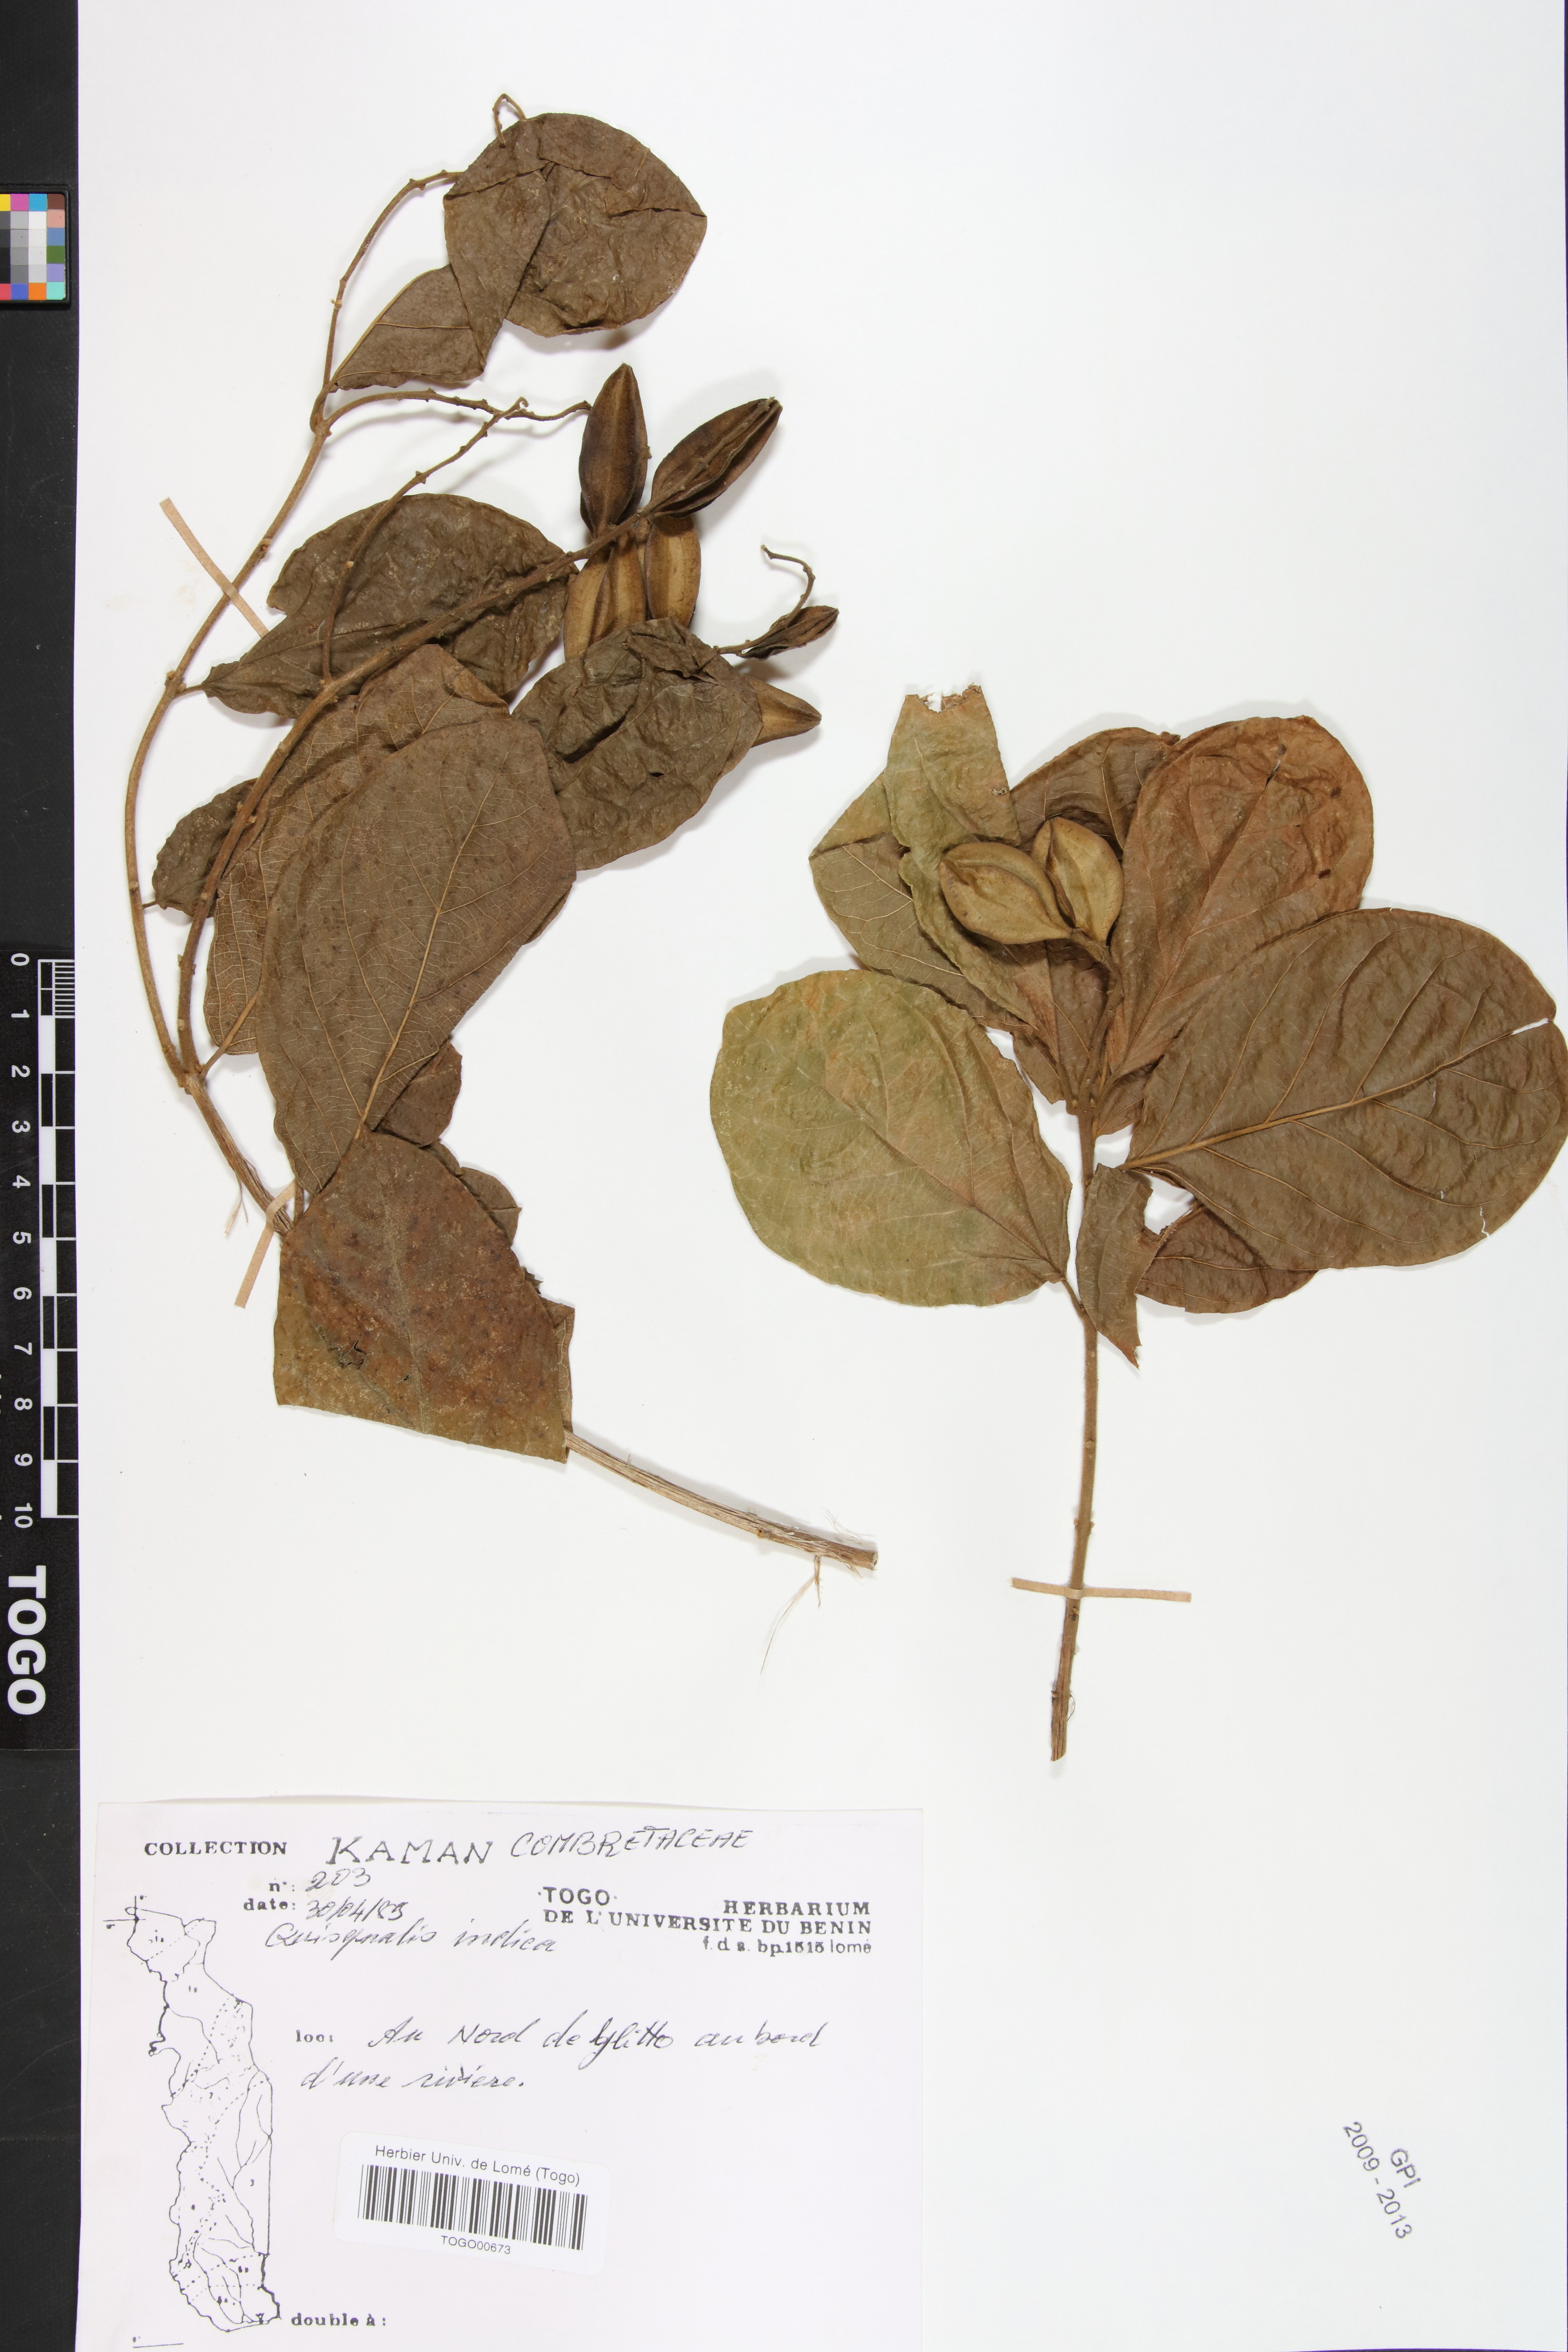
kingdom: Plantae
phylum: Tracheophyta
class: Magnoliopsida
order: Myrtales
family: Combretaceae
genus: Combretum
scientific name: Combretum indicum
